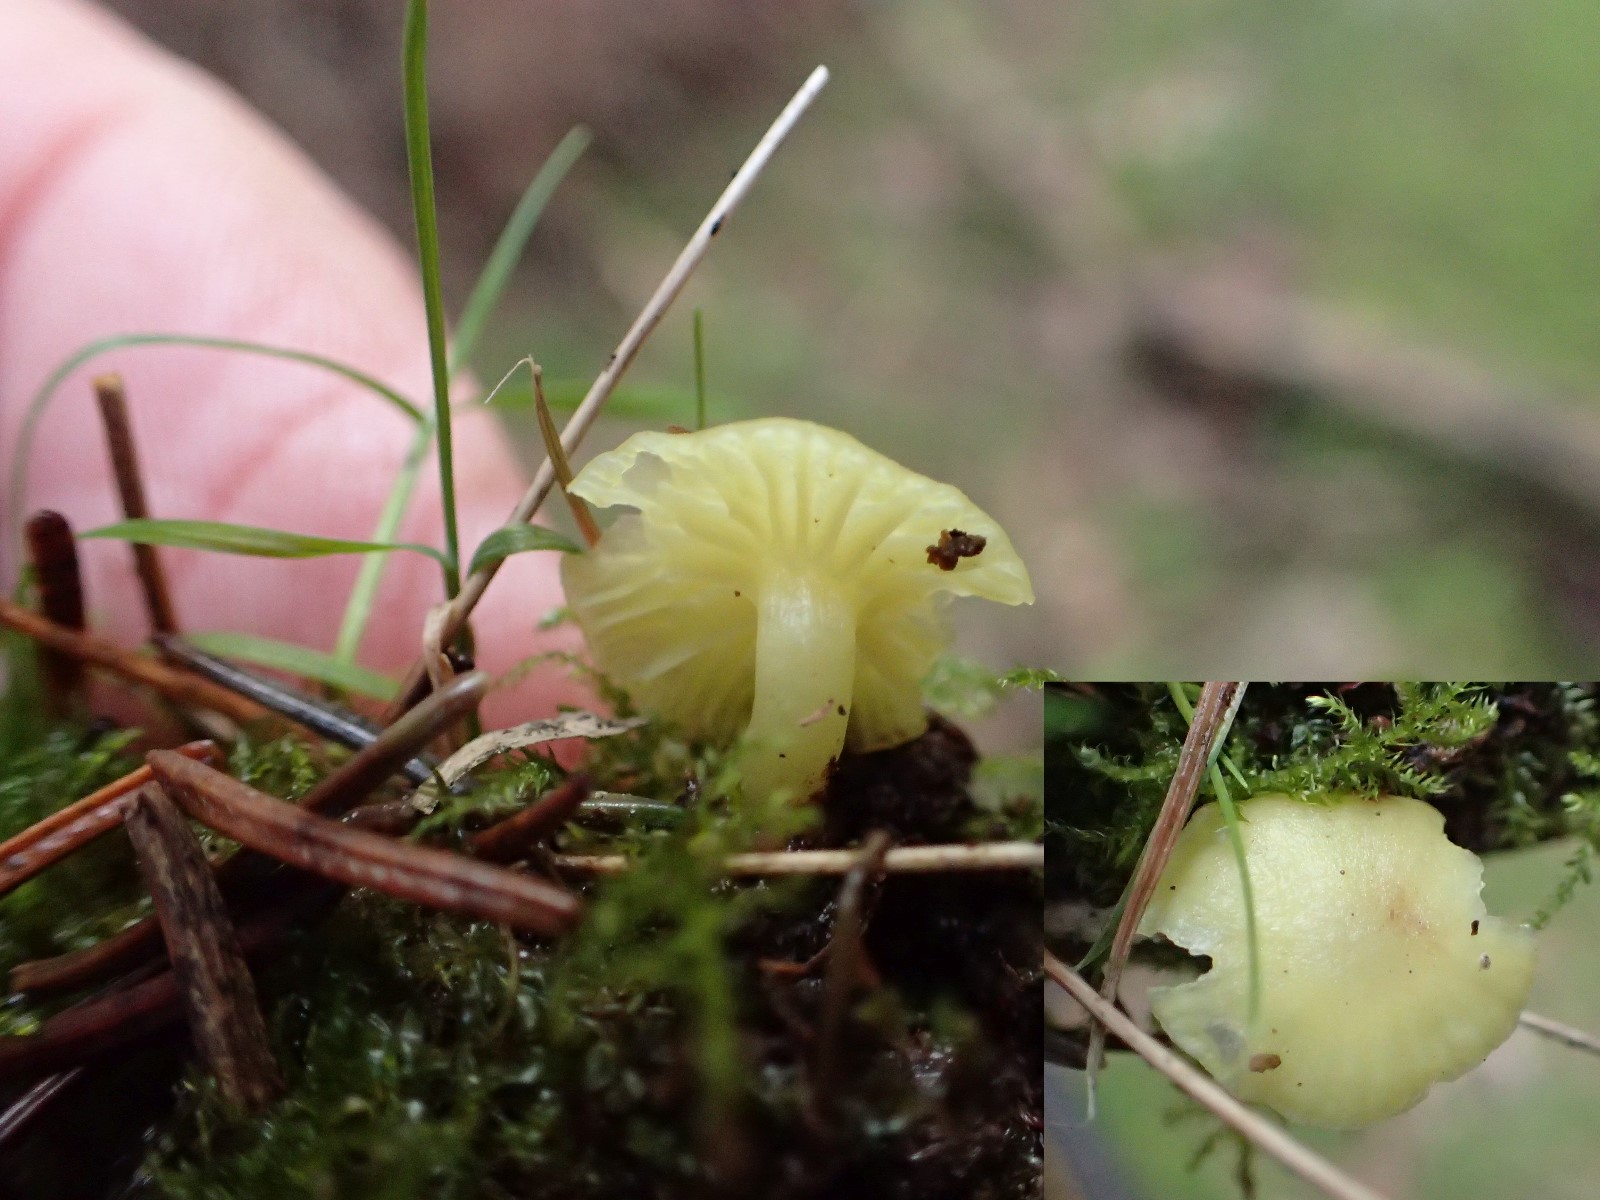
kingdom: Fungi
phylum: Basidiomycota
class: Agaricomycetes
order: Agaricales
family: Hygrophoraceae
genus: Chrysomphalina
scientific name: Chrysomphalina grossula
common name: stød-gyldenblad
